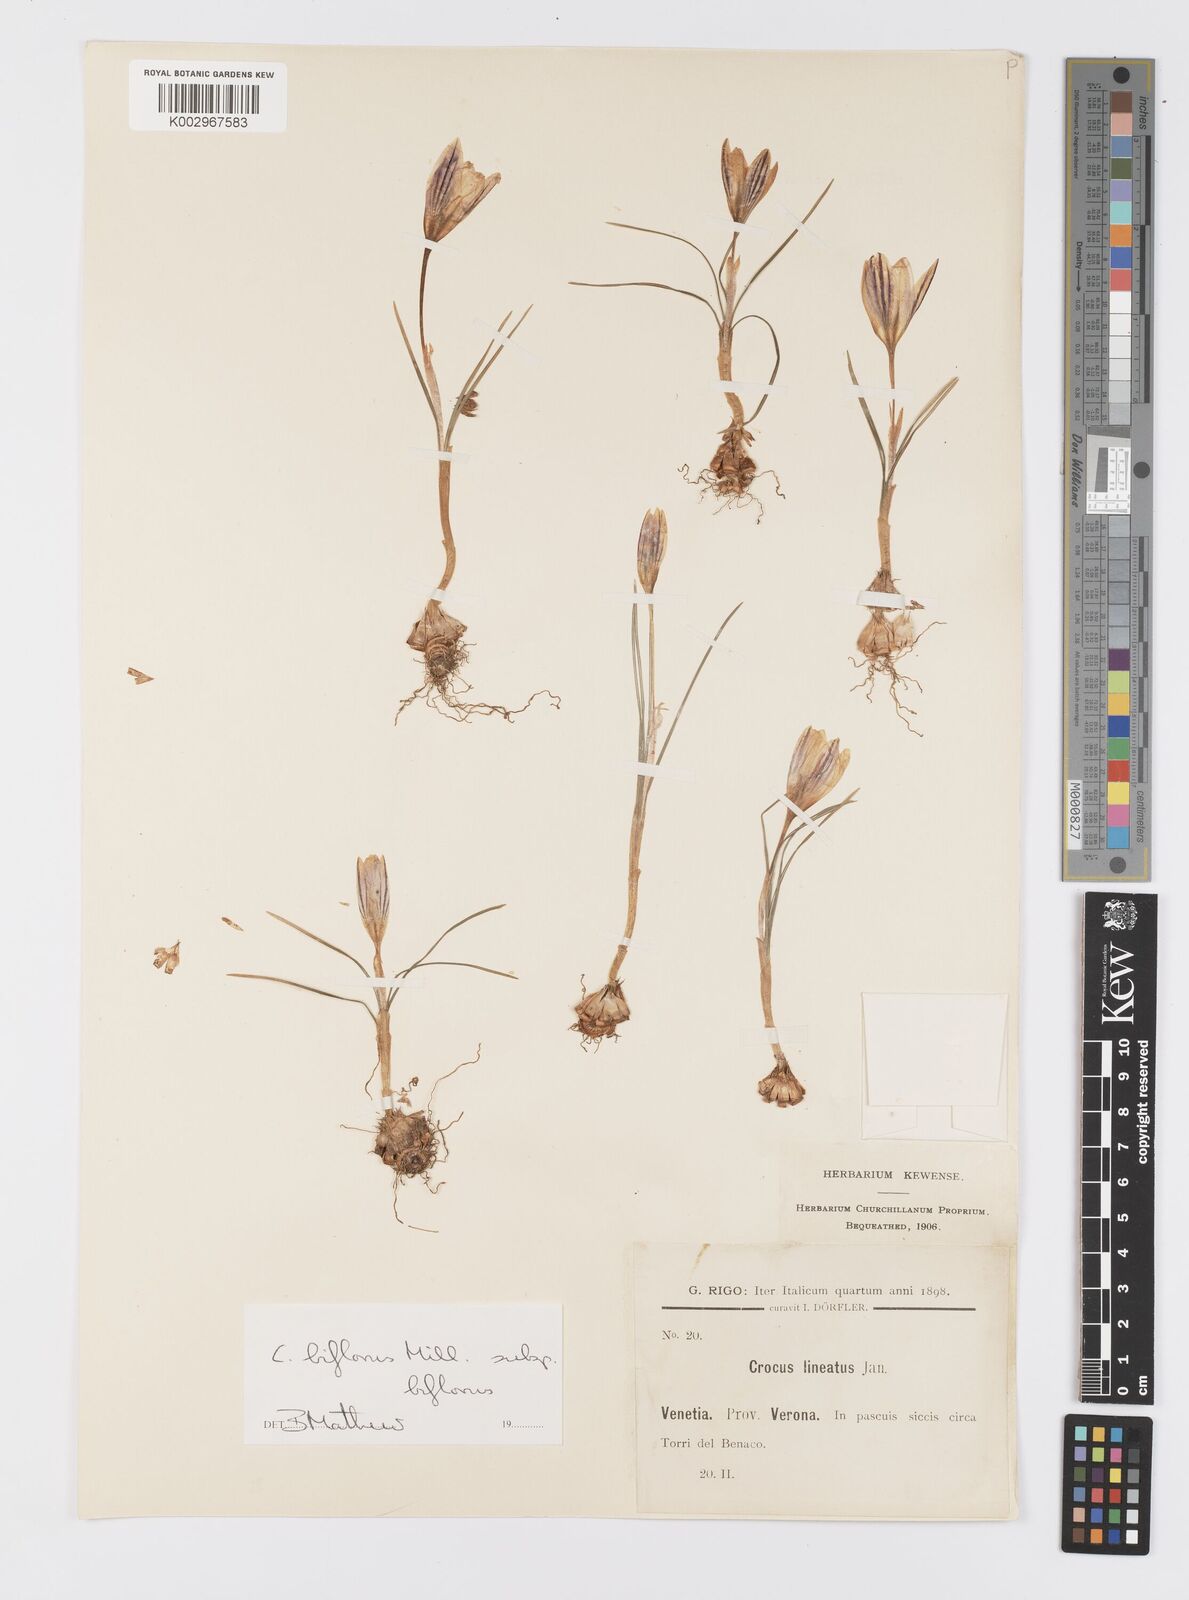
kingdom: Plantae
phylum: Tracheophyta
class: Liliopsida
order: Asparagales
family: Iridaceae
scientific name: Iridaceae
